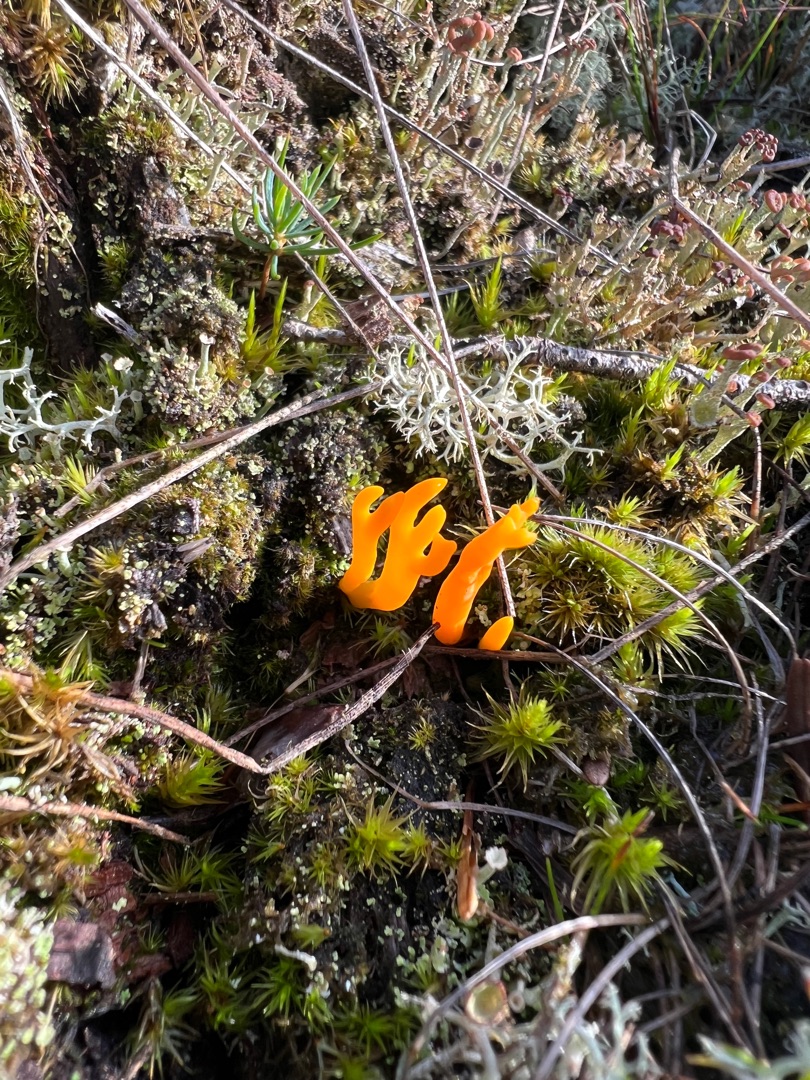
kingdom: Fungi
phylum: Basidiomycota
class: Dacrymycetes
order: Dacrymycetales
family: Dacrymycetaceae
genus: Calocera
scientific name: Calocera viscosa
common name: Almindelig guldgaffel
